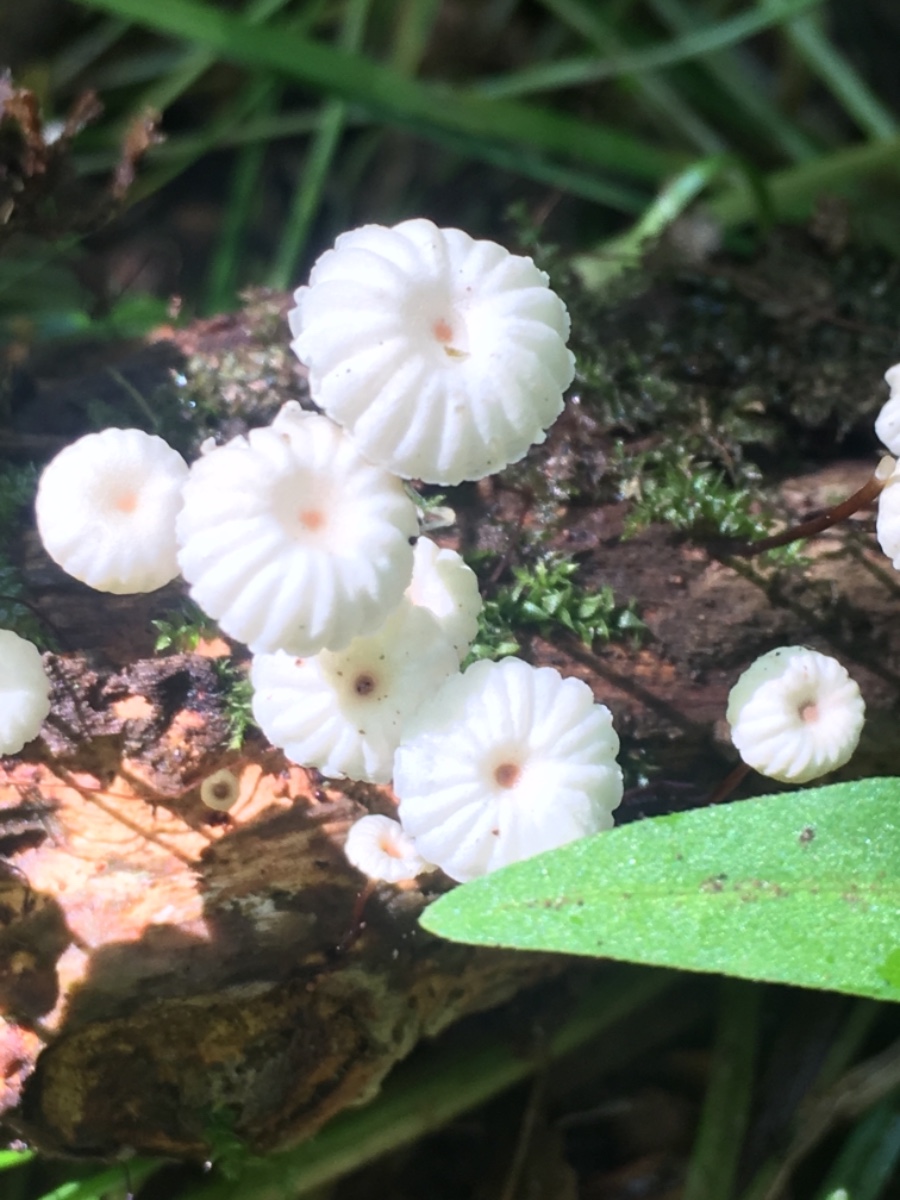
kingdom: Fungi
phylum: Basidiomycota
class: Agaricomycetes
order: Agaricales
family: Marasmiaceae
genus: Marasmius
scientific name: Marasmius rotula
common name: hjul-bruskhat
